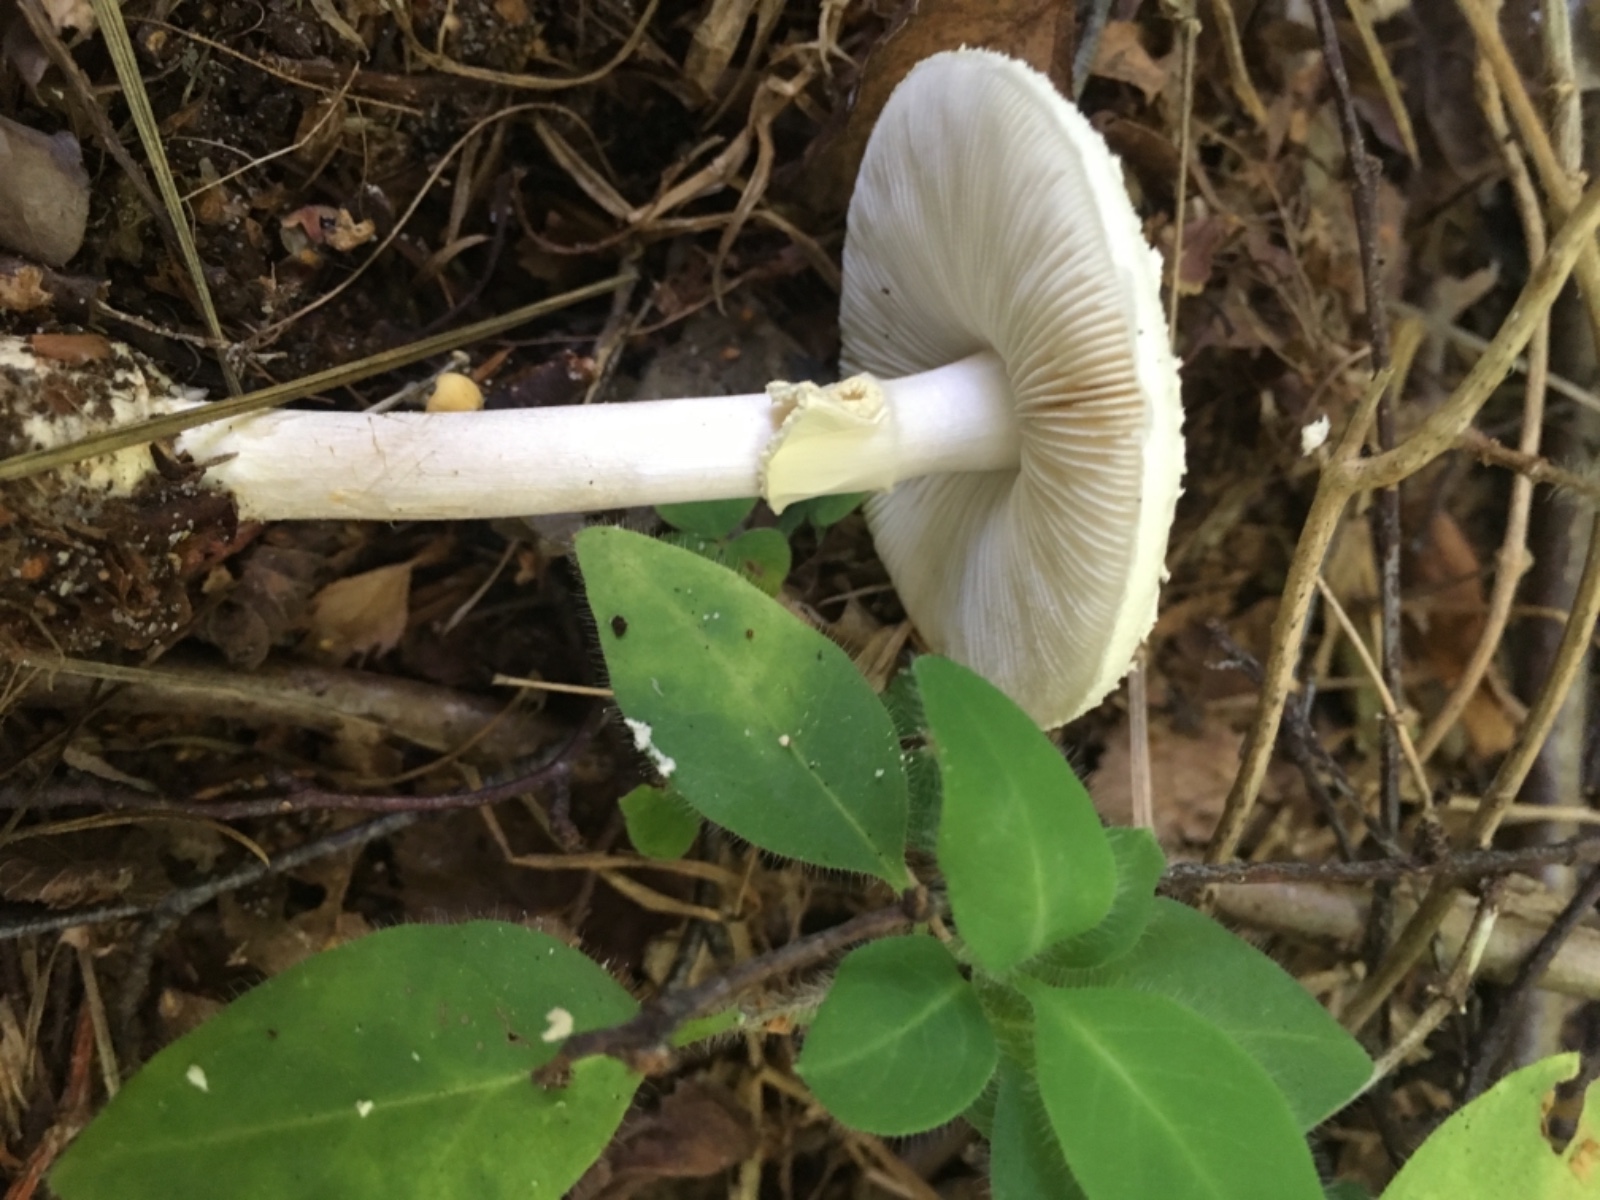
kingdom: Fungi
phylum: Basidiomycota
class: Agaricomycetes
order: Agaricales
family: Amanitaceae
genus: Amanita
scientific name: Amanita citrina
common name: kugleknoldet fluesvamp
